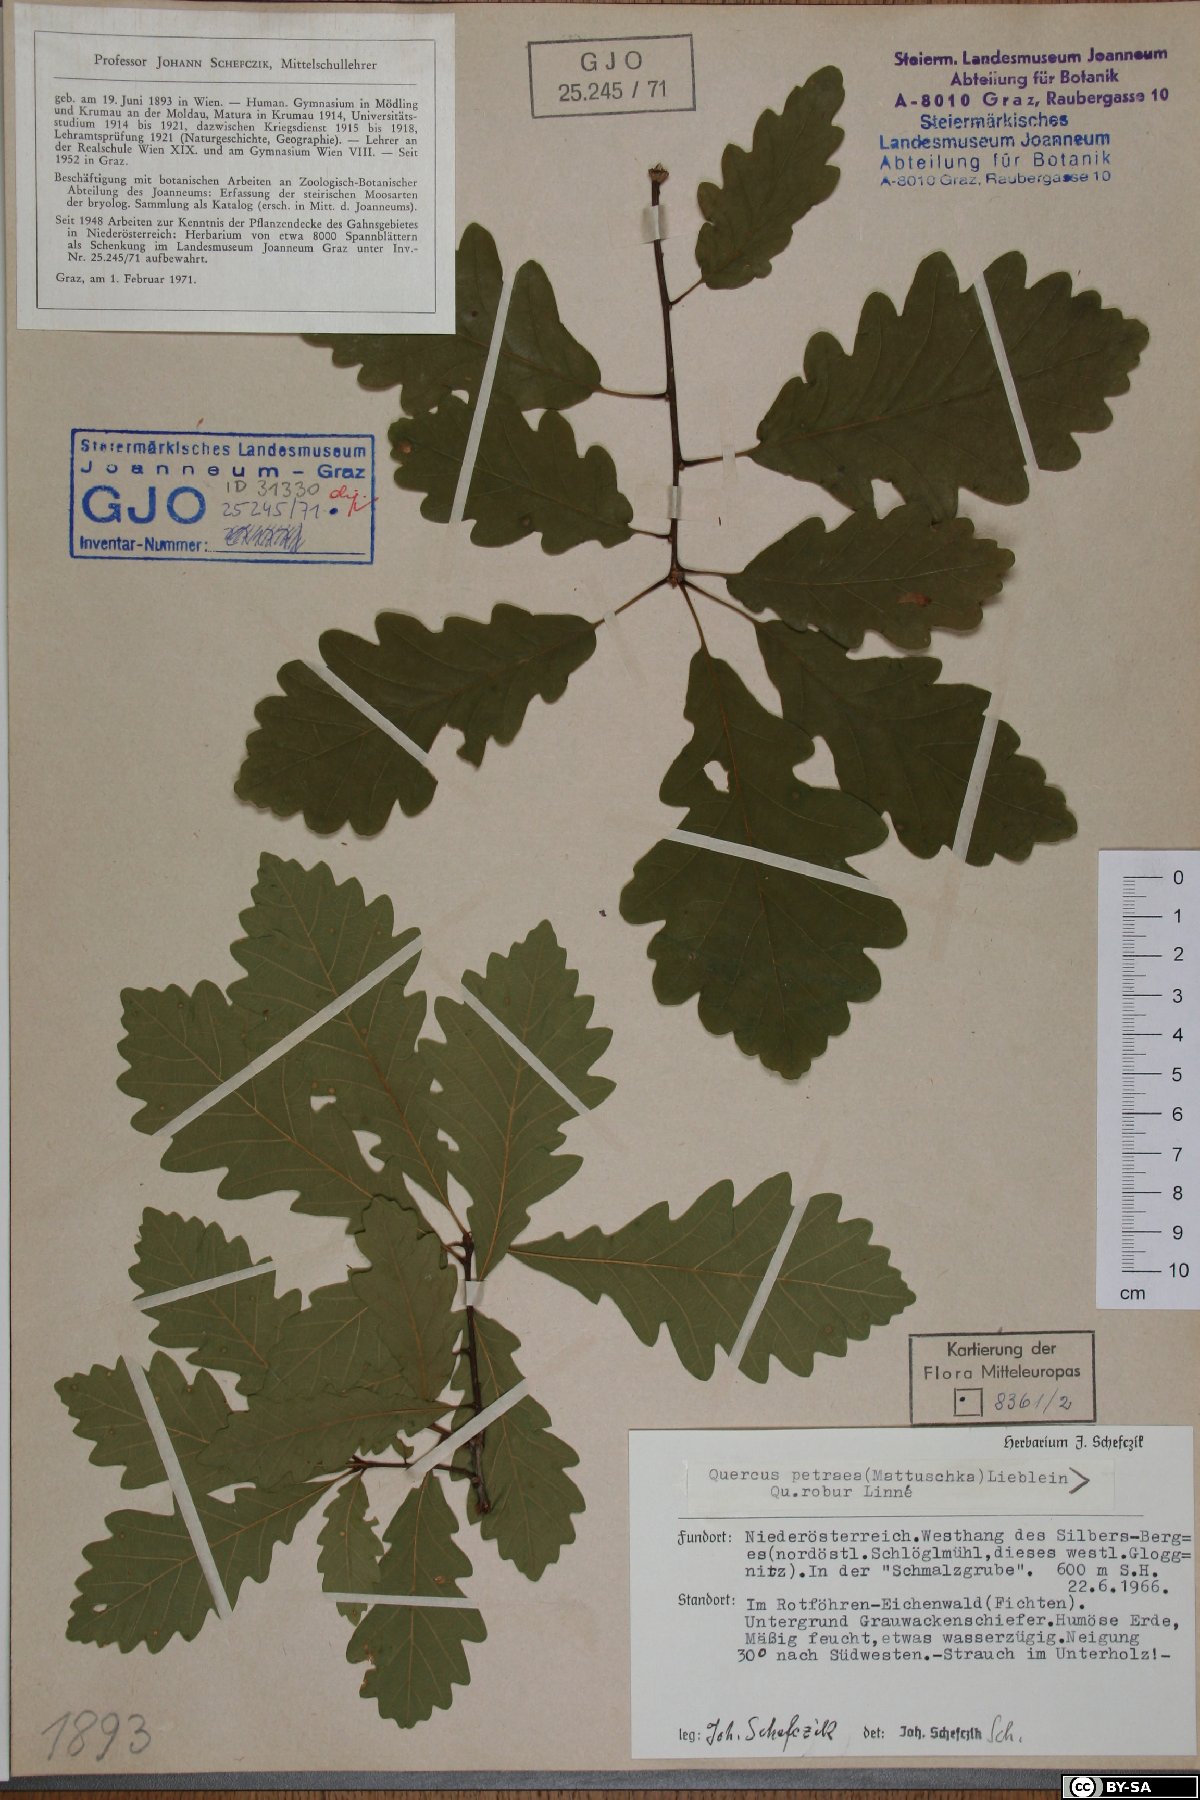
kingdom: Plantae
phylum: Tracheophyta
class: Magnoliopsida
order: Fagales
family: Fagaceae
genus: Quercus
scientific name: Quercus petraea
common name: Sessile oak
